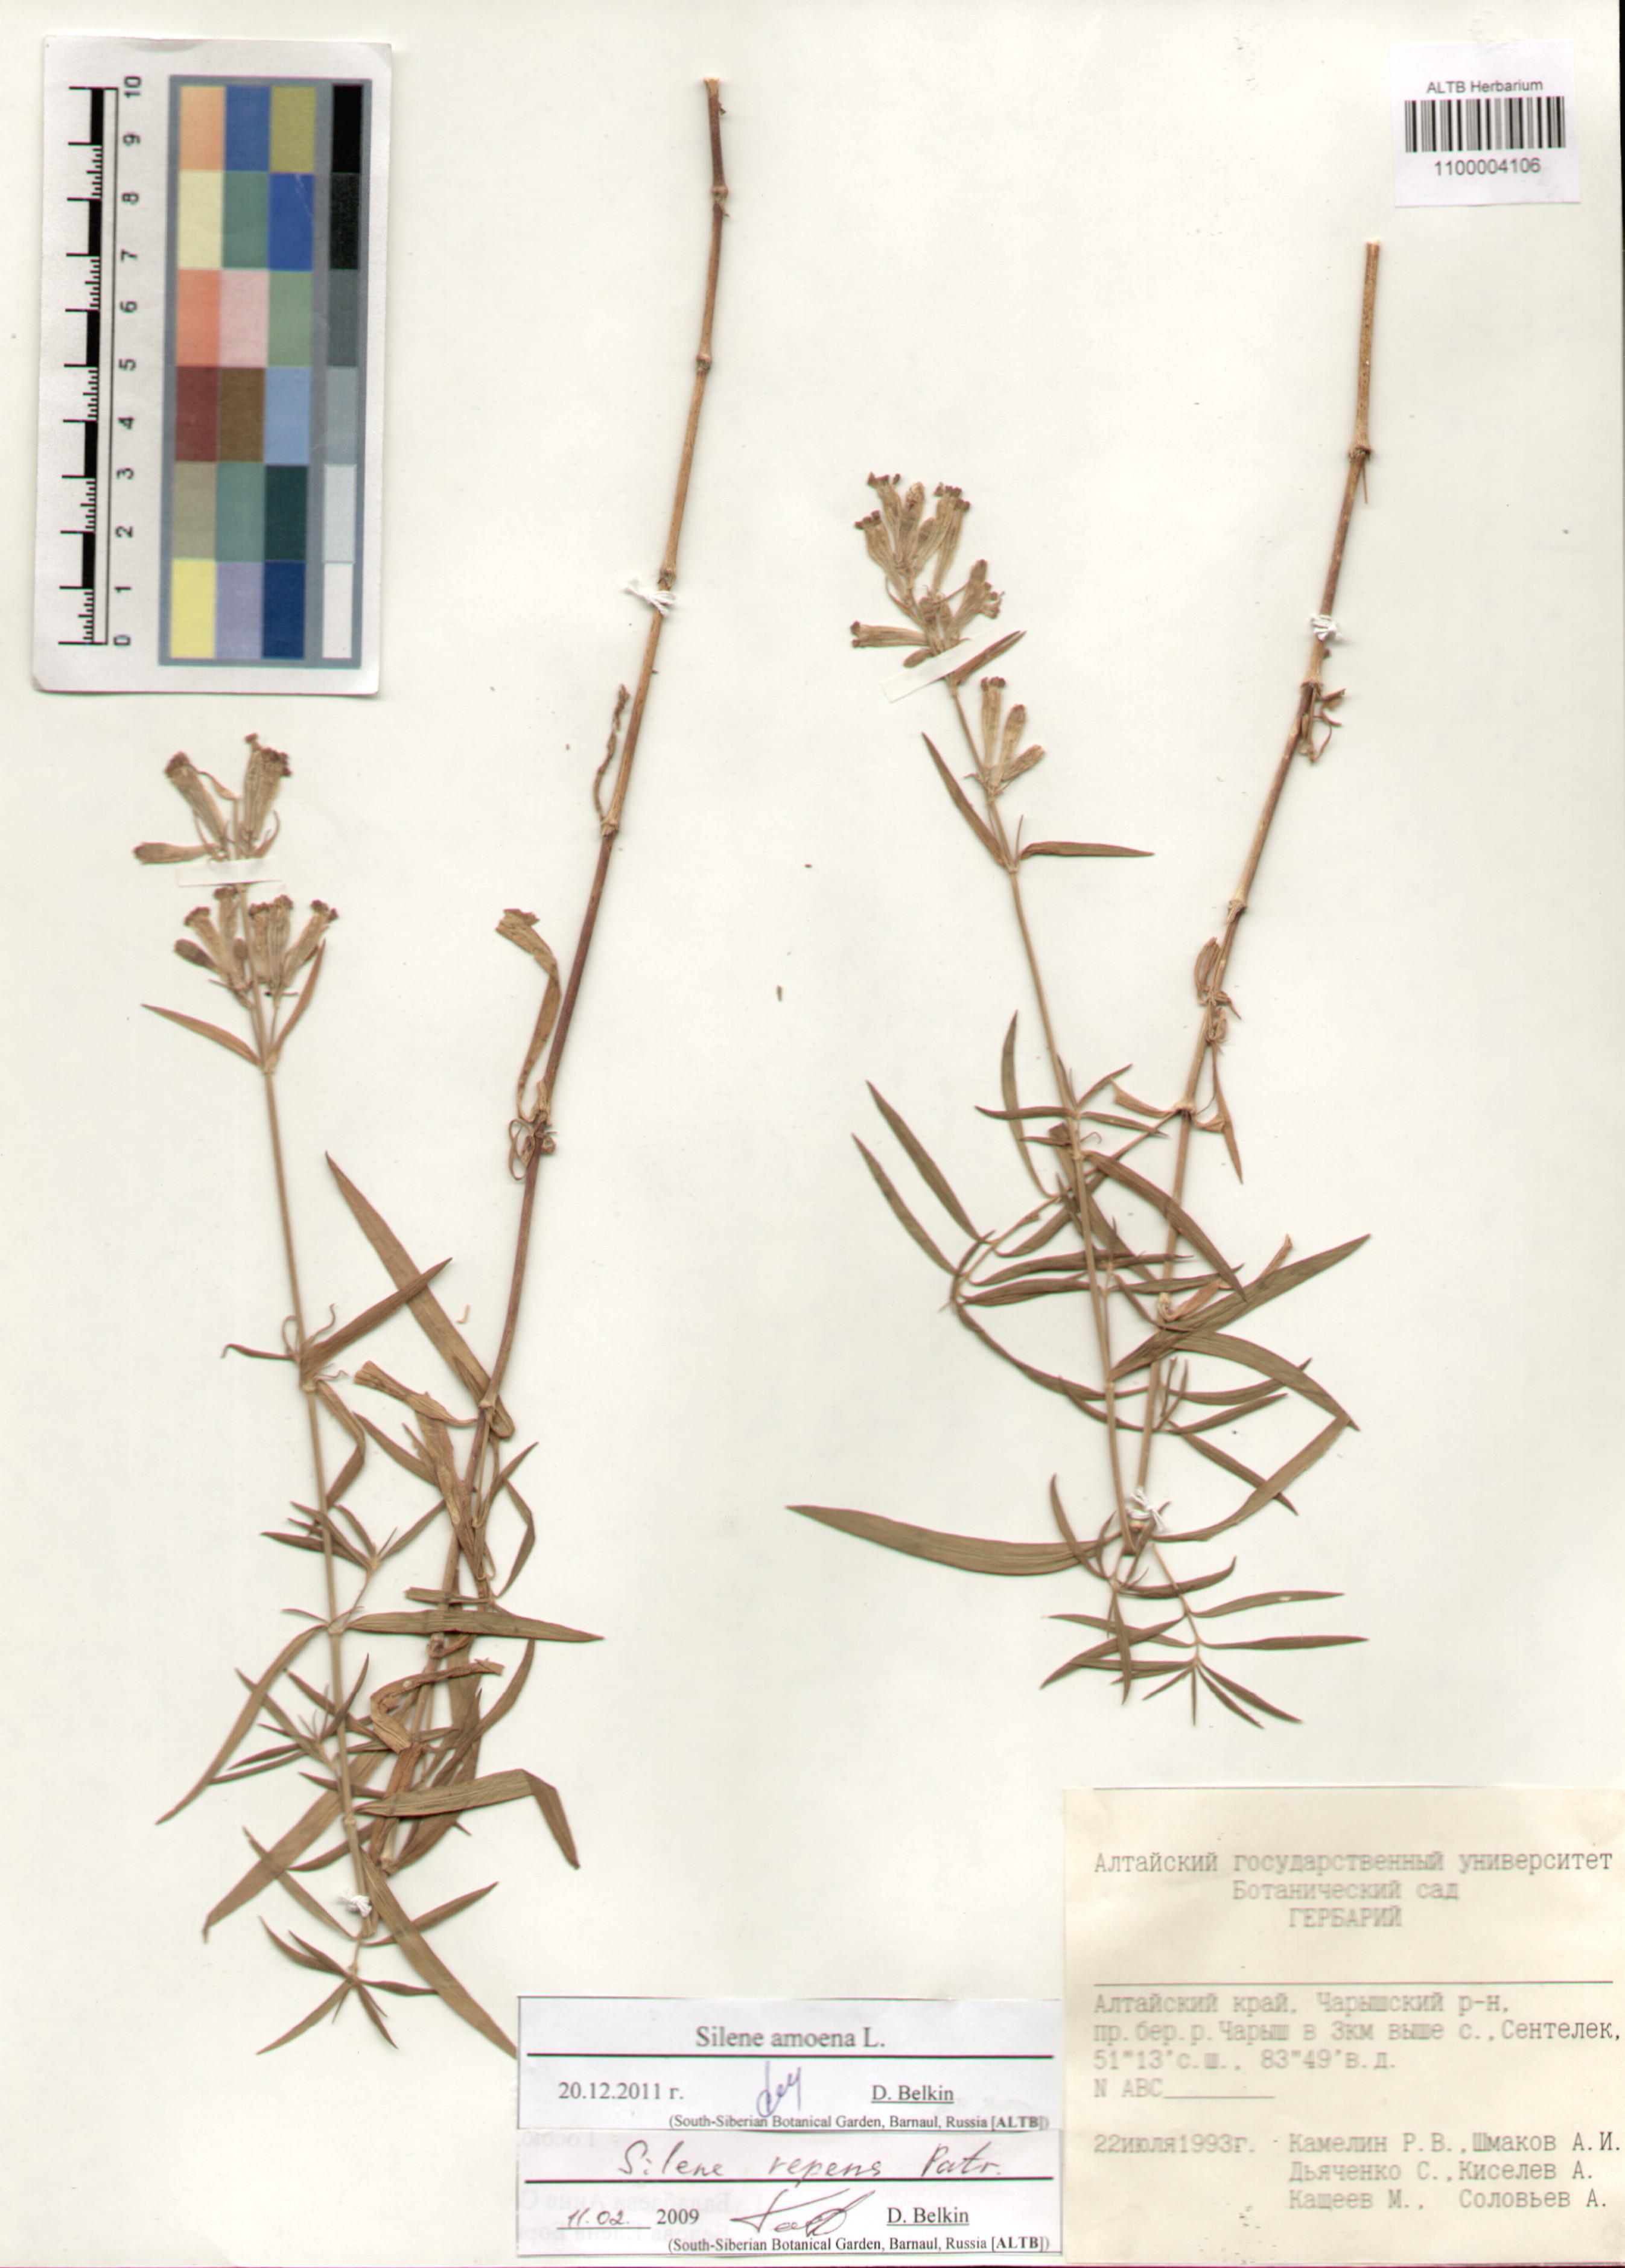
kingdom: Plantae
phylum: Tracheophyta
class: Magnoliopsida
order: Caryophyllales
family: Caryophyllaceae
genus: Silene
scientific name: Silene amoena
